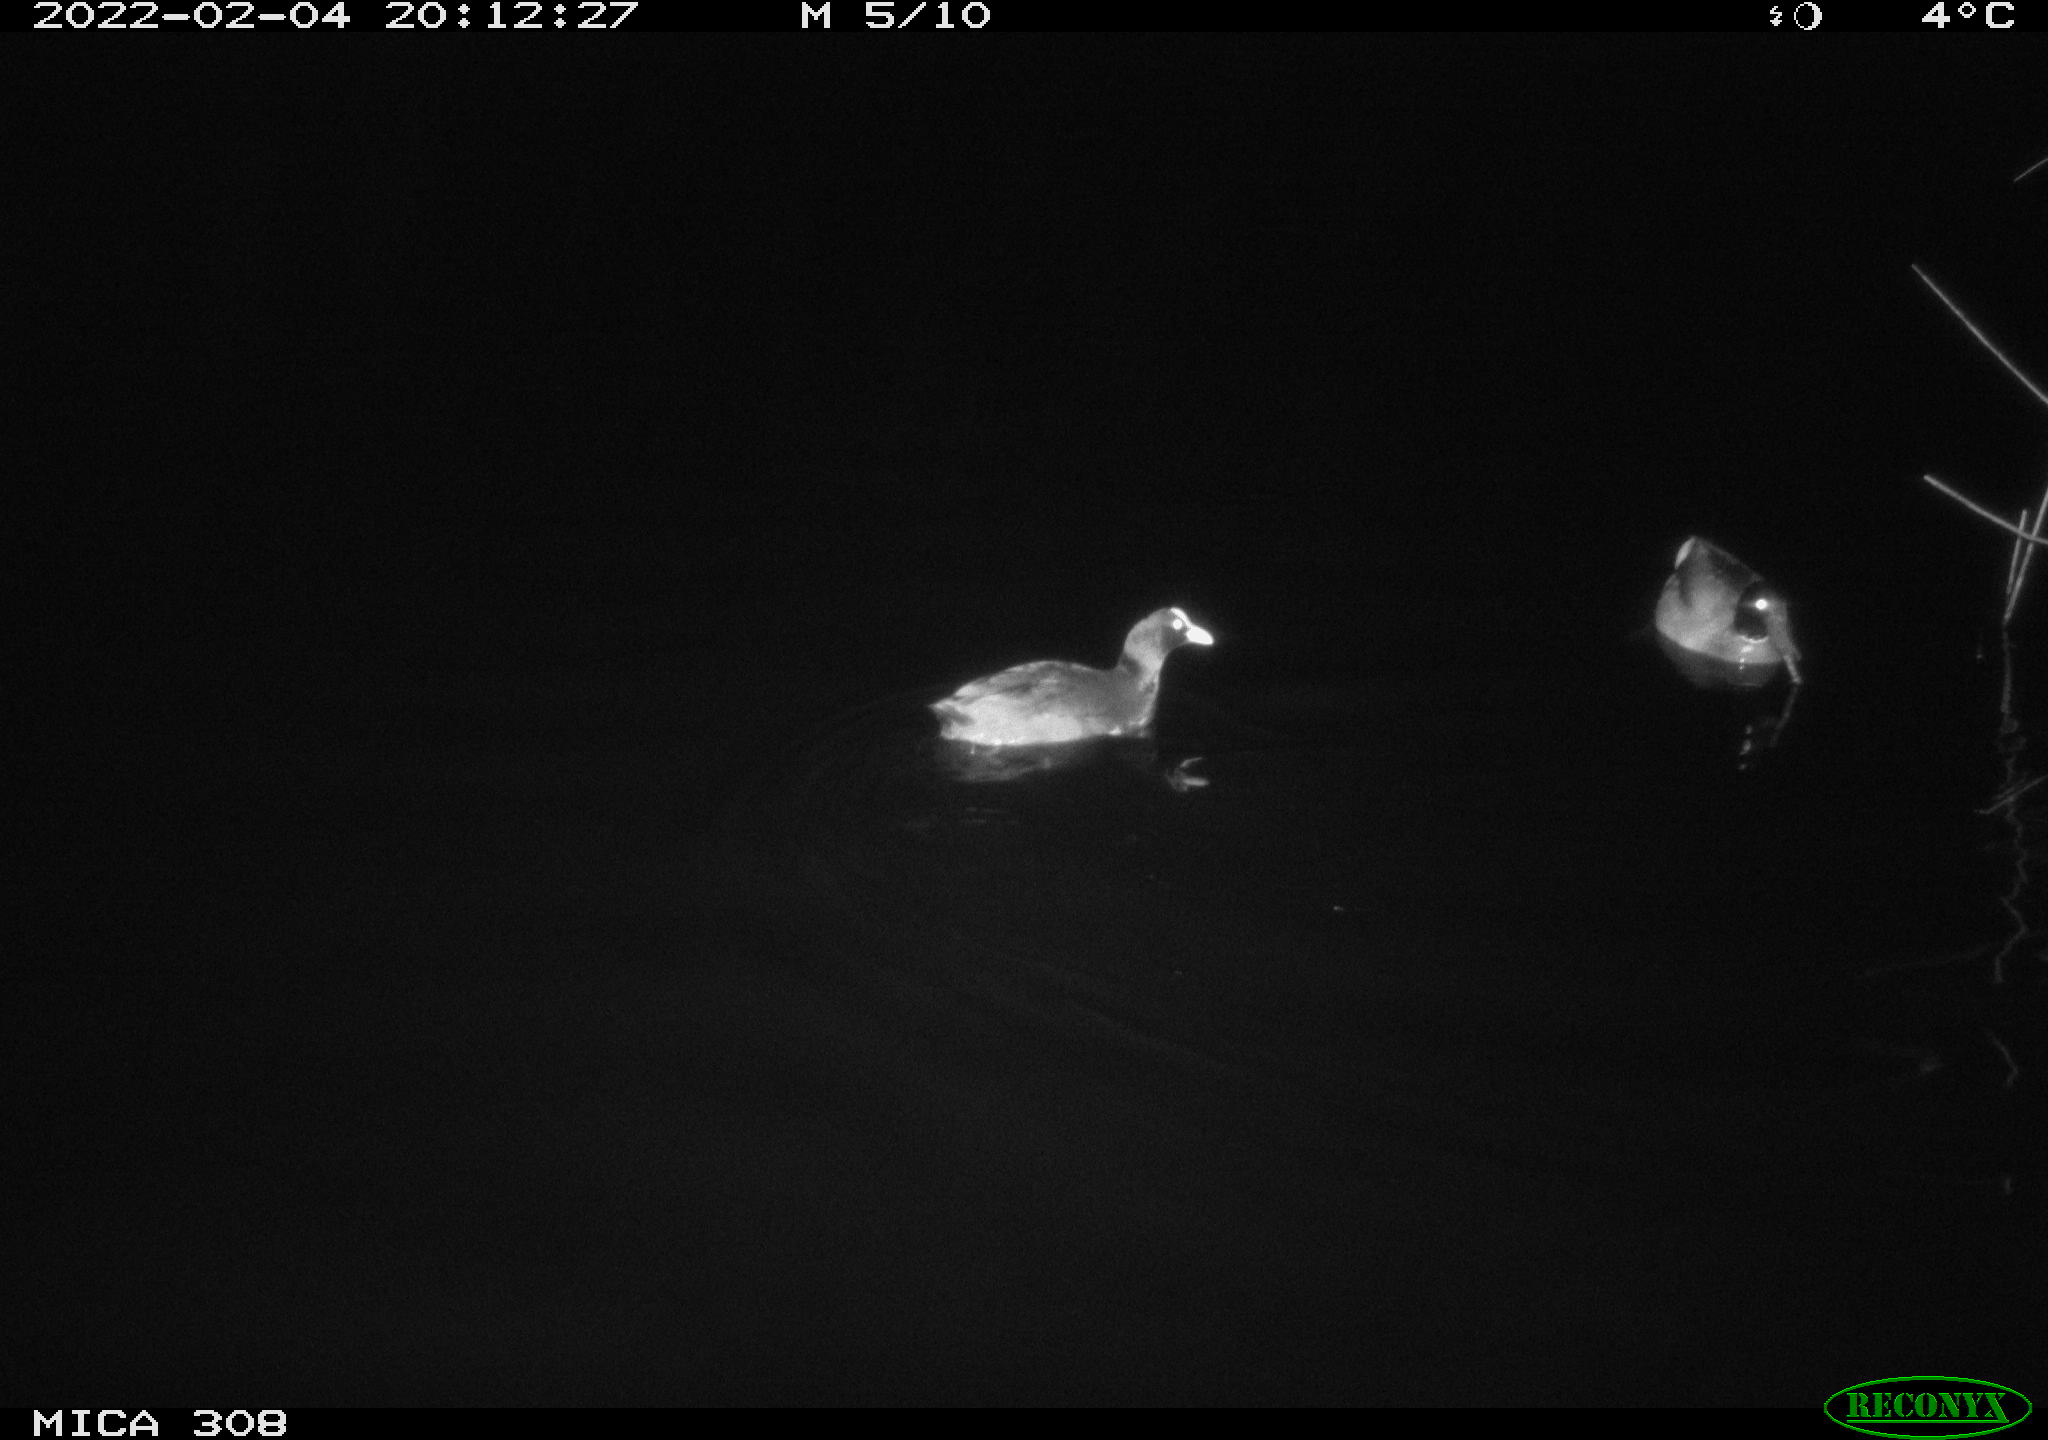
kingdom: Animalia
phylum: Chordata
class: Aves
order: Anseriformes
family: Anatidae
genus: Anas
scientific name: Anas platyrhynchos
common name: Mallard
